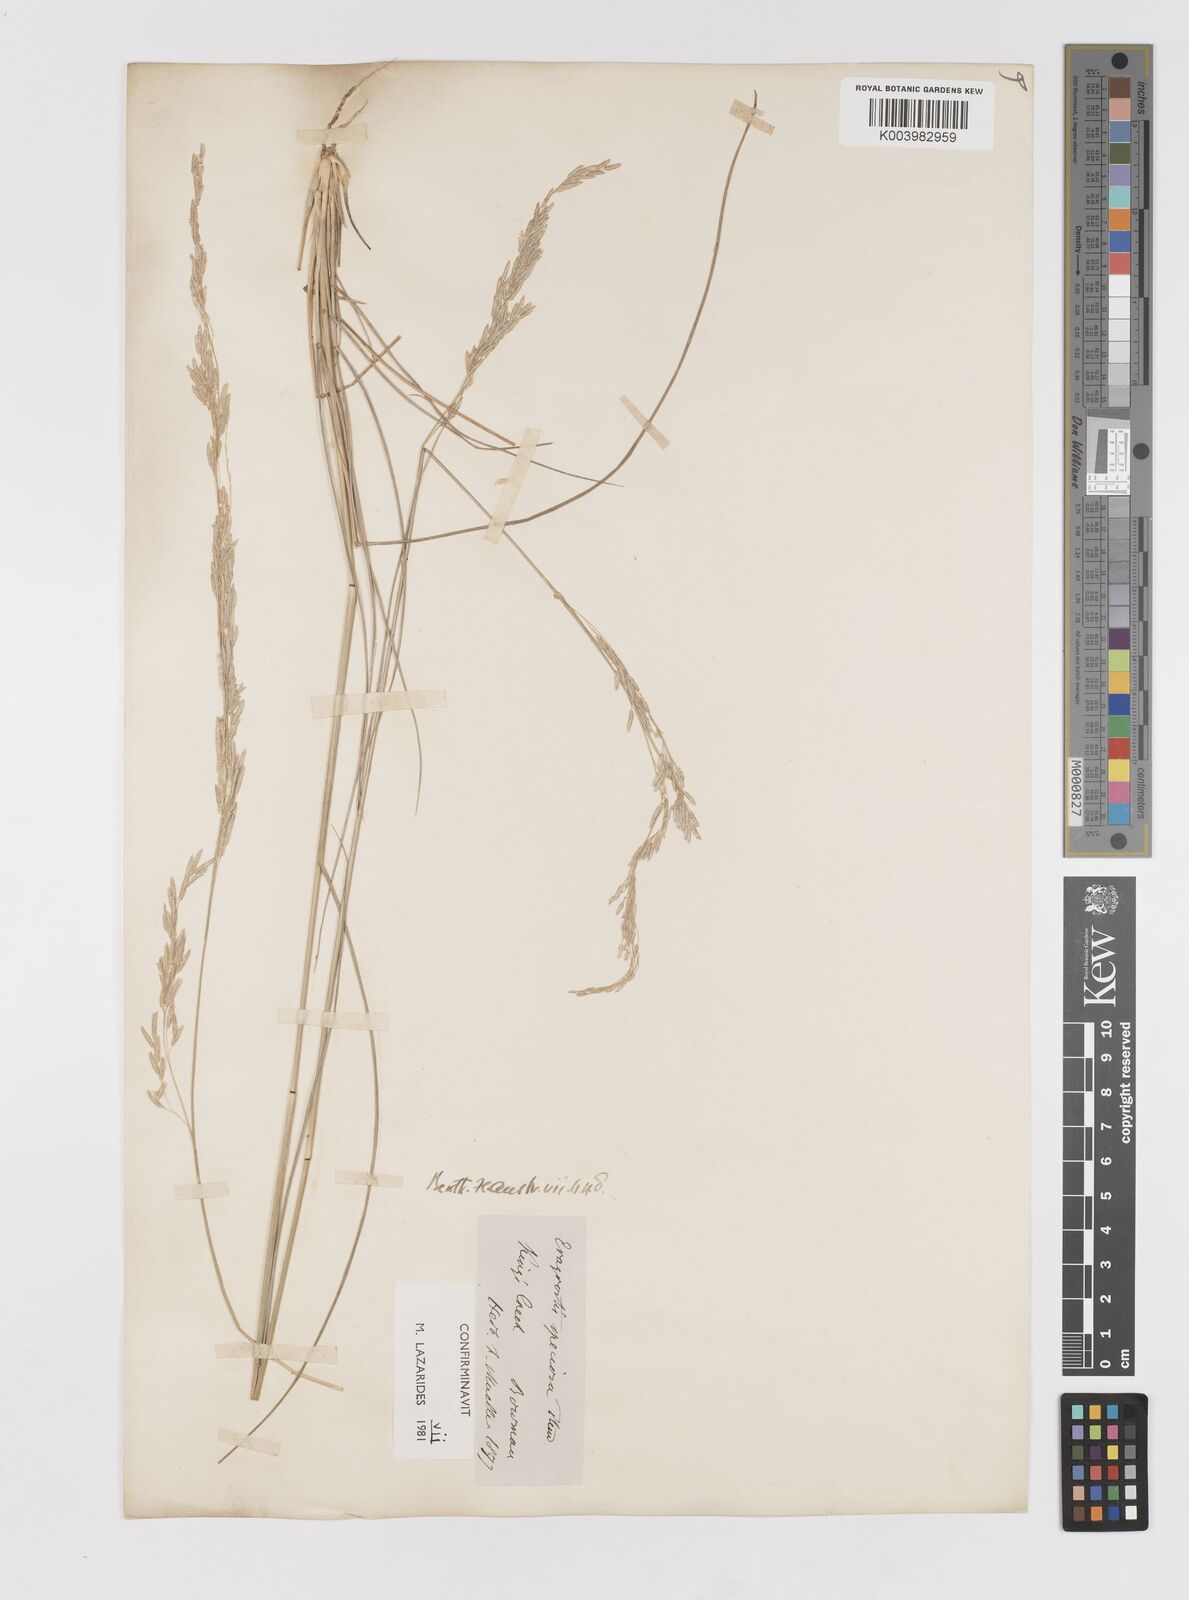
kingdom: Plantae
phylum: Tracheophyta
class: Liliopsida
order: Poales
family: Poaceae
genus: Eragrostis
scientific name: Eragrostis speciosa
